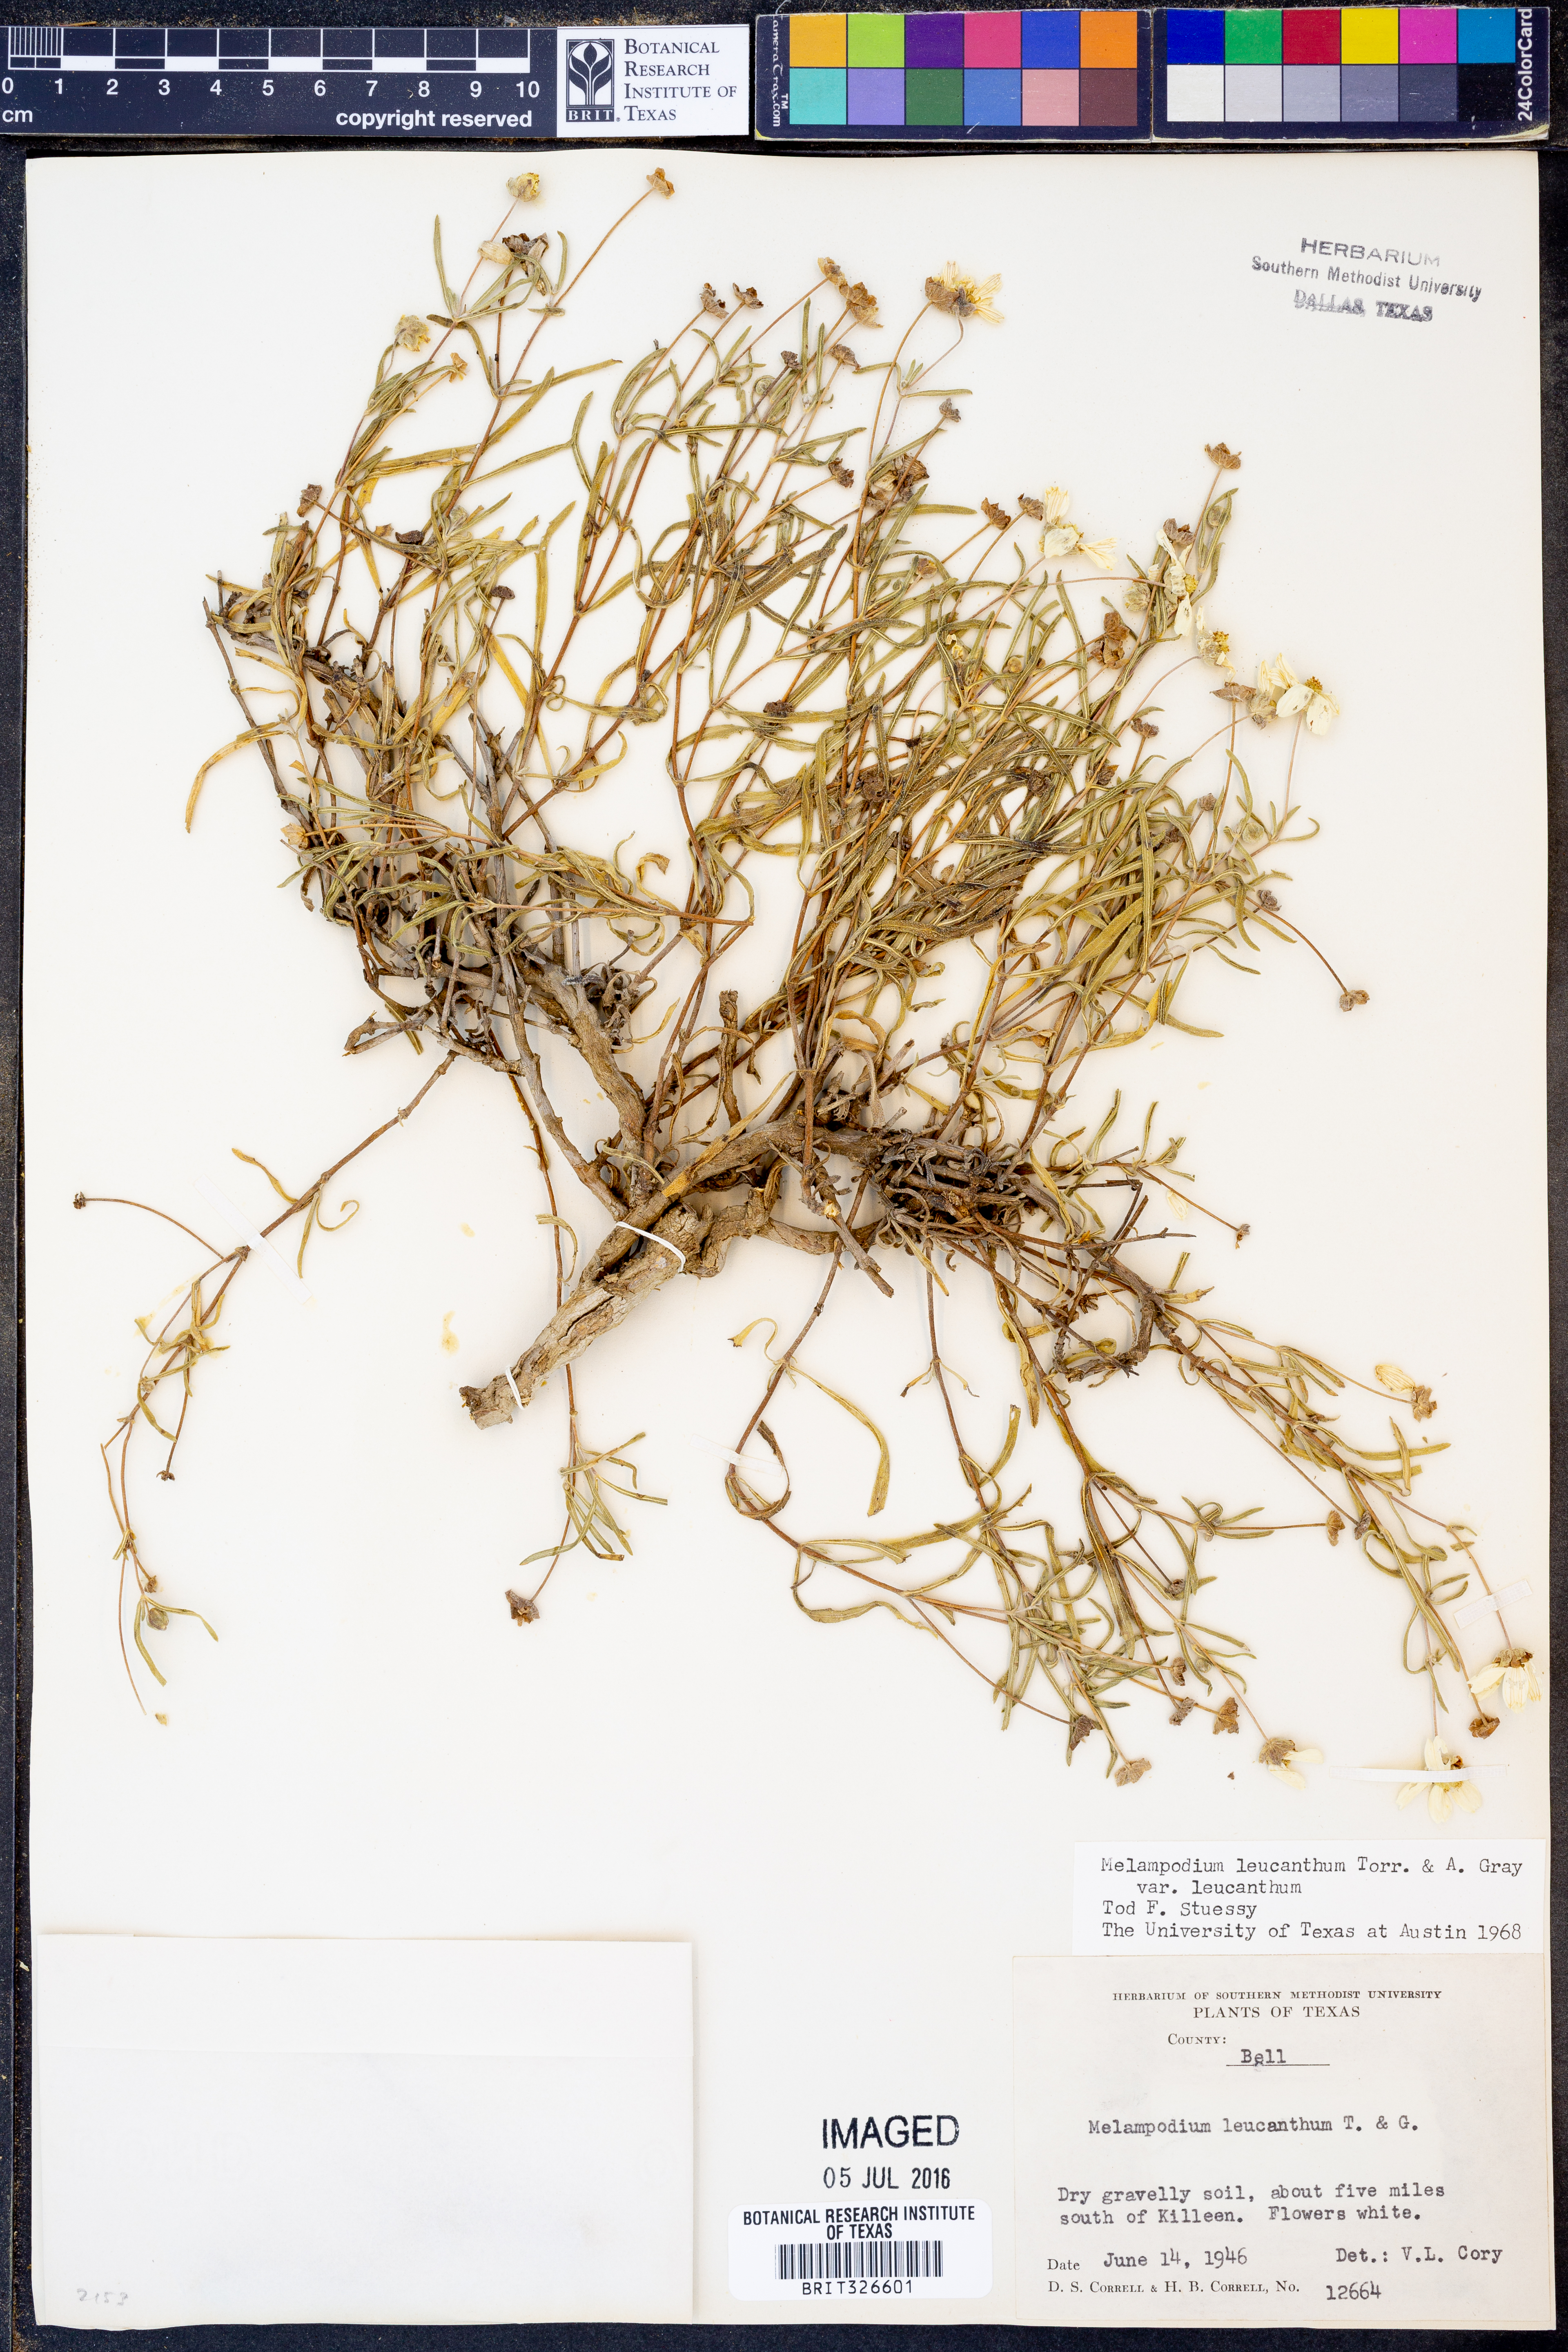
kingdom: Plantae
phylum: Tracheophyta
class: Magnoliopsida
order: Asterales
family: Asteraceae
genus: Melampodium
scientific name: Melampodium leucanthum
